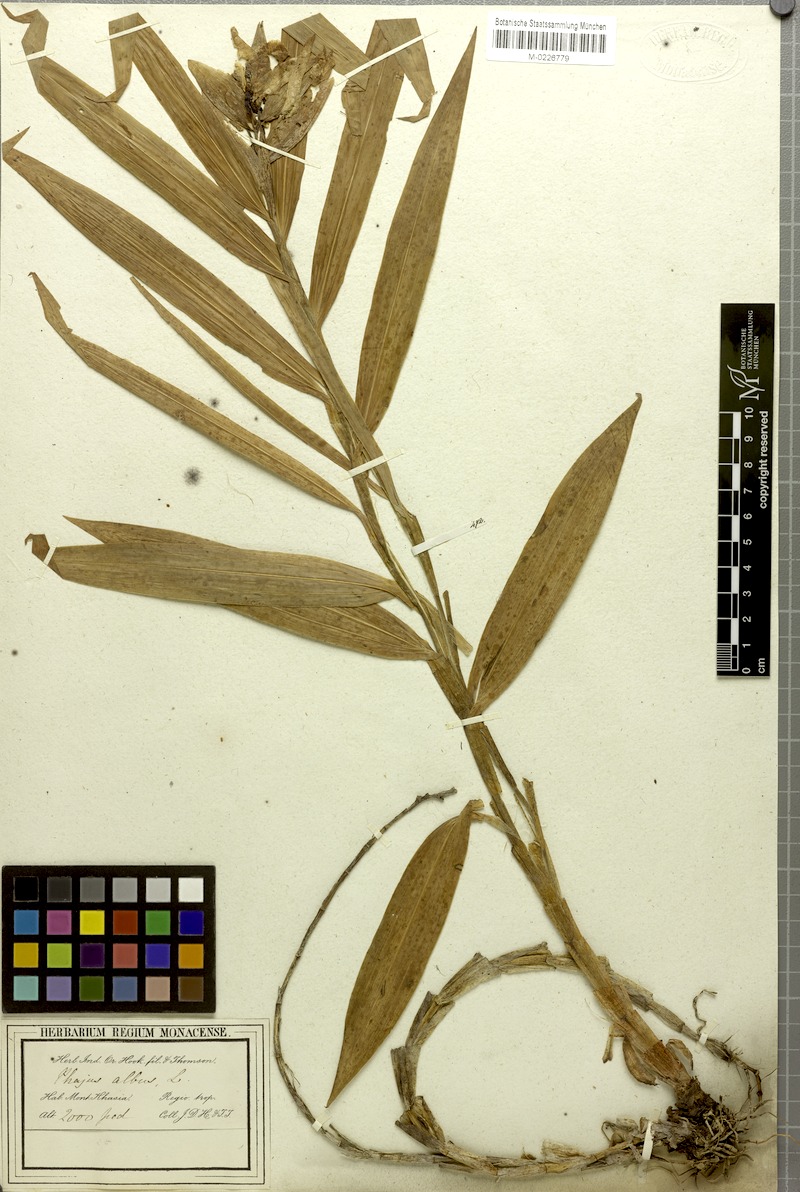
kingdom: Plantae
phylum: Tracheophyta
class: Liliopsida
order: Asparagales
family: Orchidaceae
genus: Thunia
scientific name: Thunia alba
